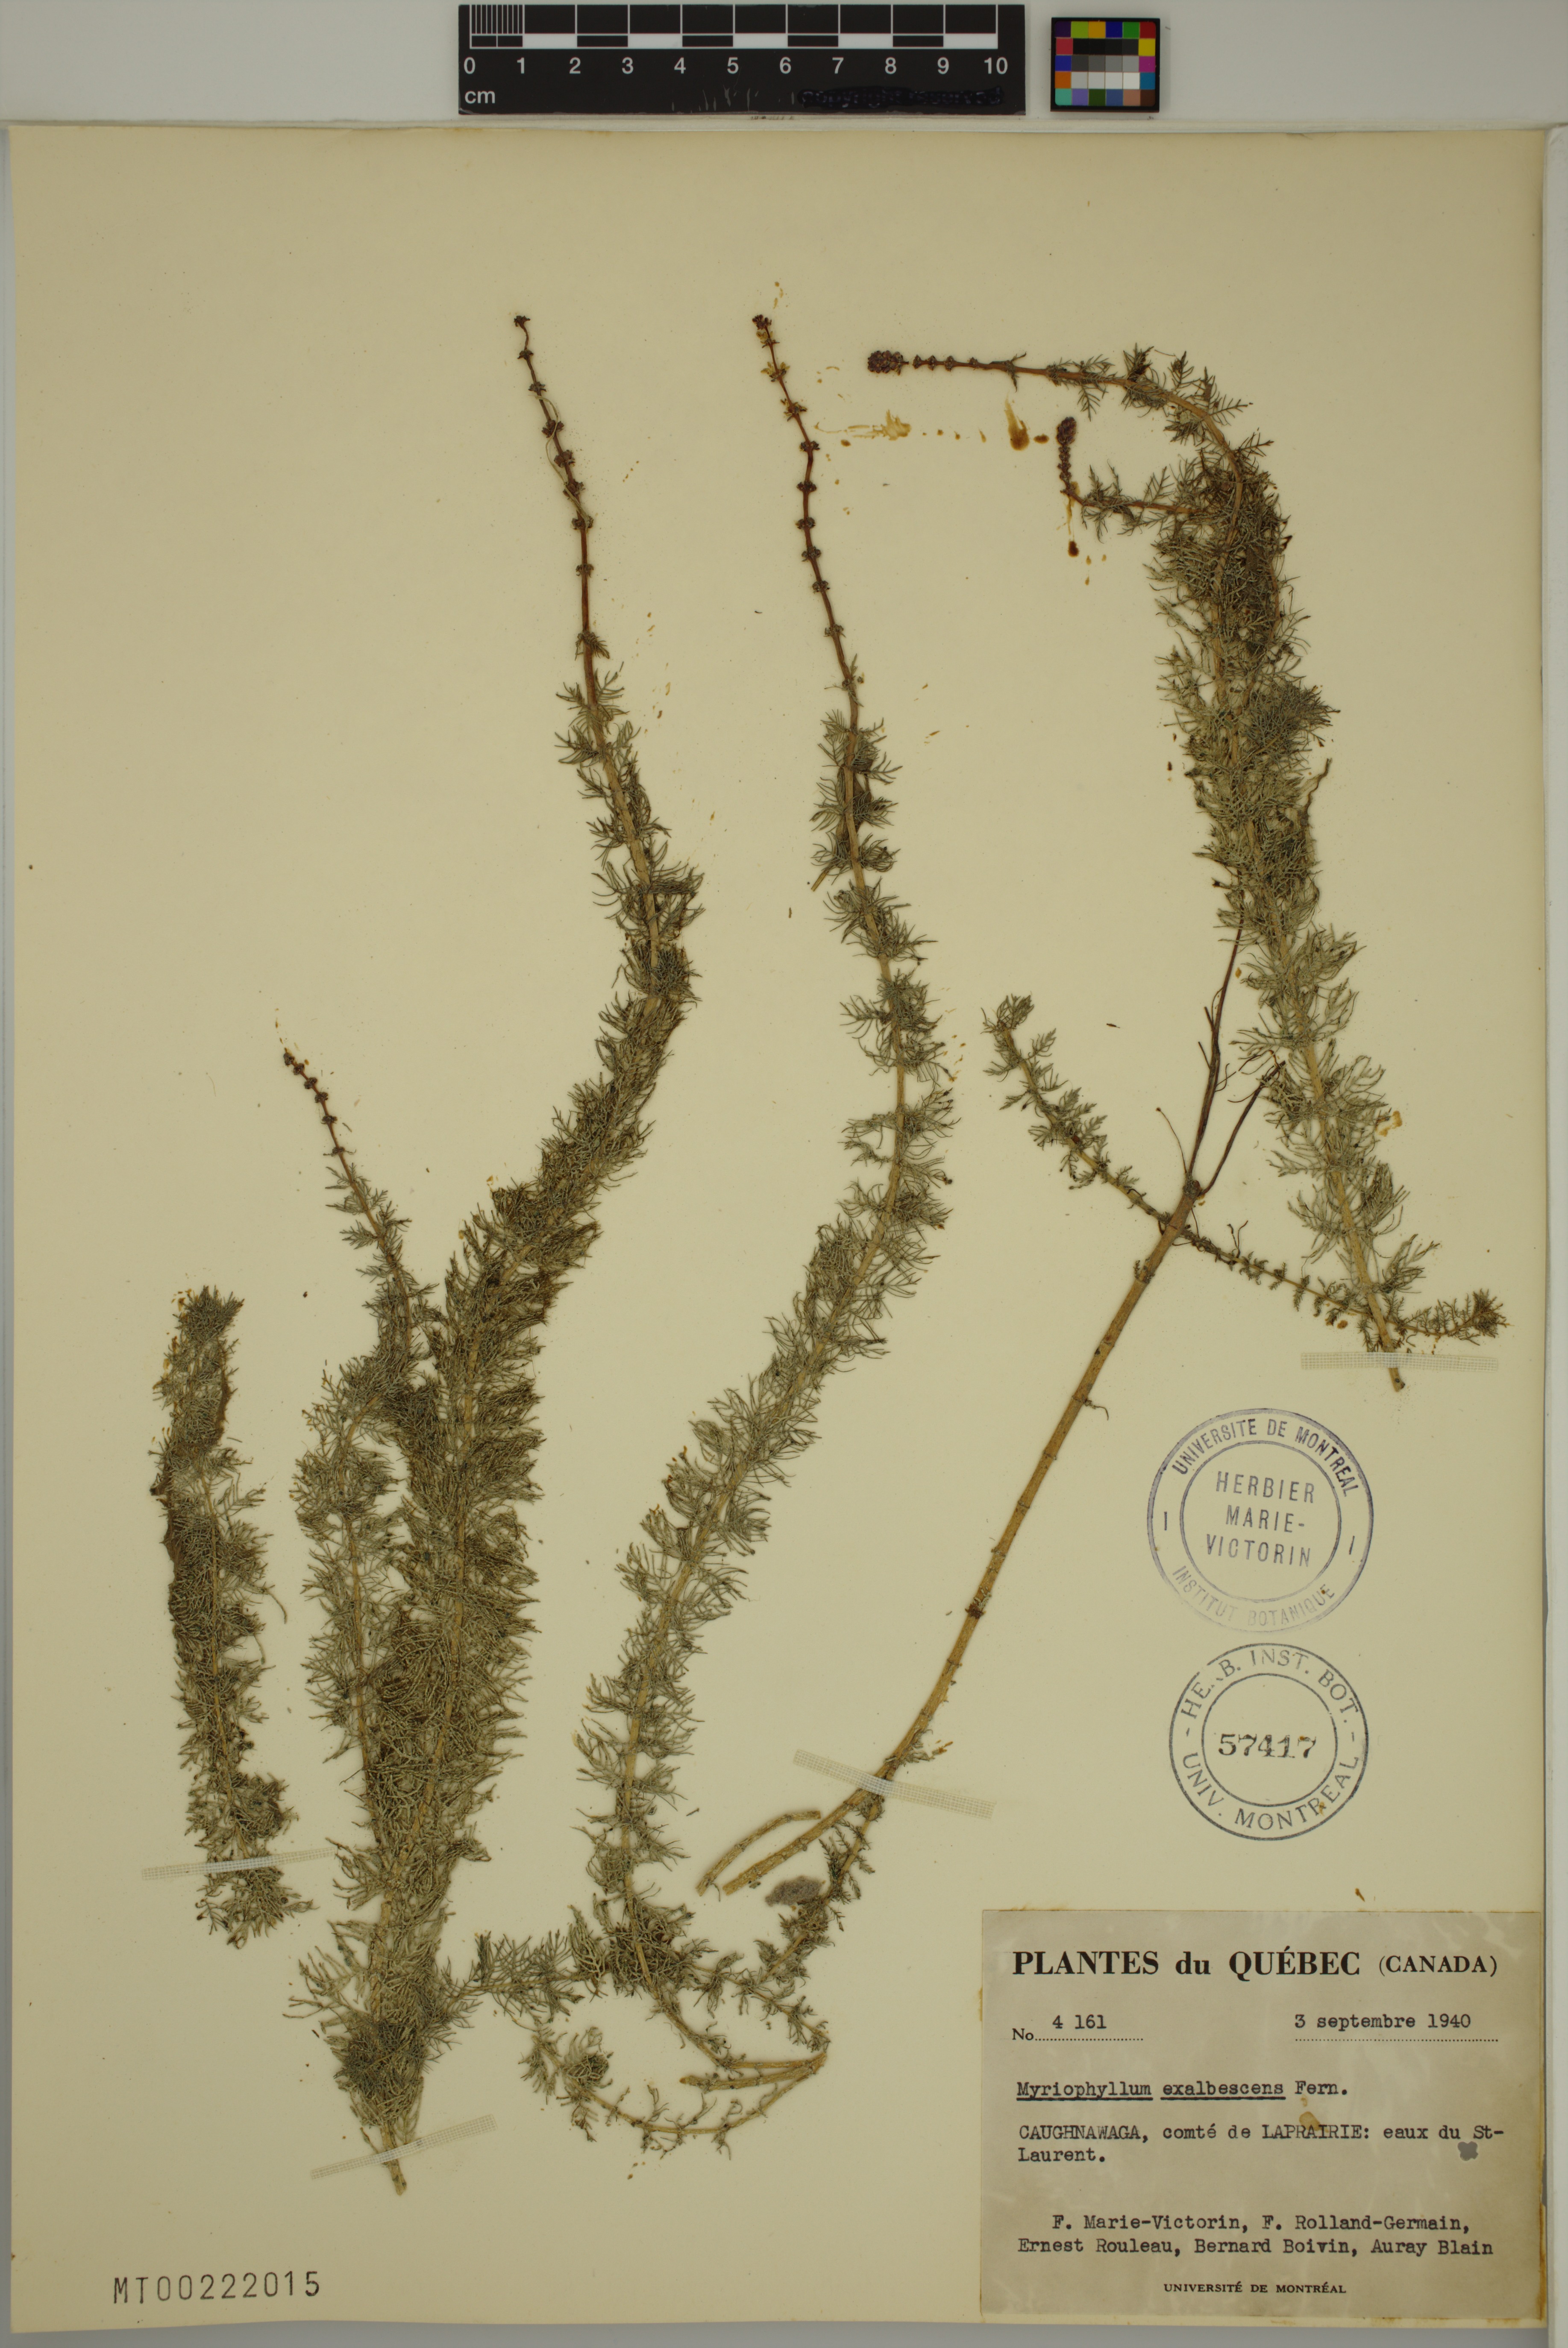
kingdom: Plantae
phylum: Tracheophyta
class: Magnoliopsida
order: Saxifragales
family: Haloragaceae
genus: Myriophyllum
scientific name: Myriophyllum sibiricum
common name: Siberian water-milfoil
